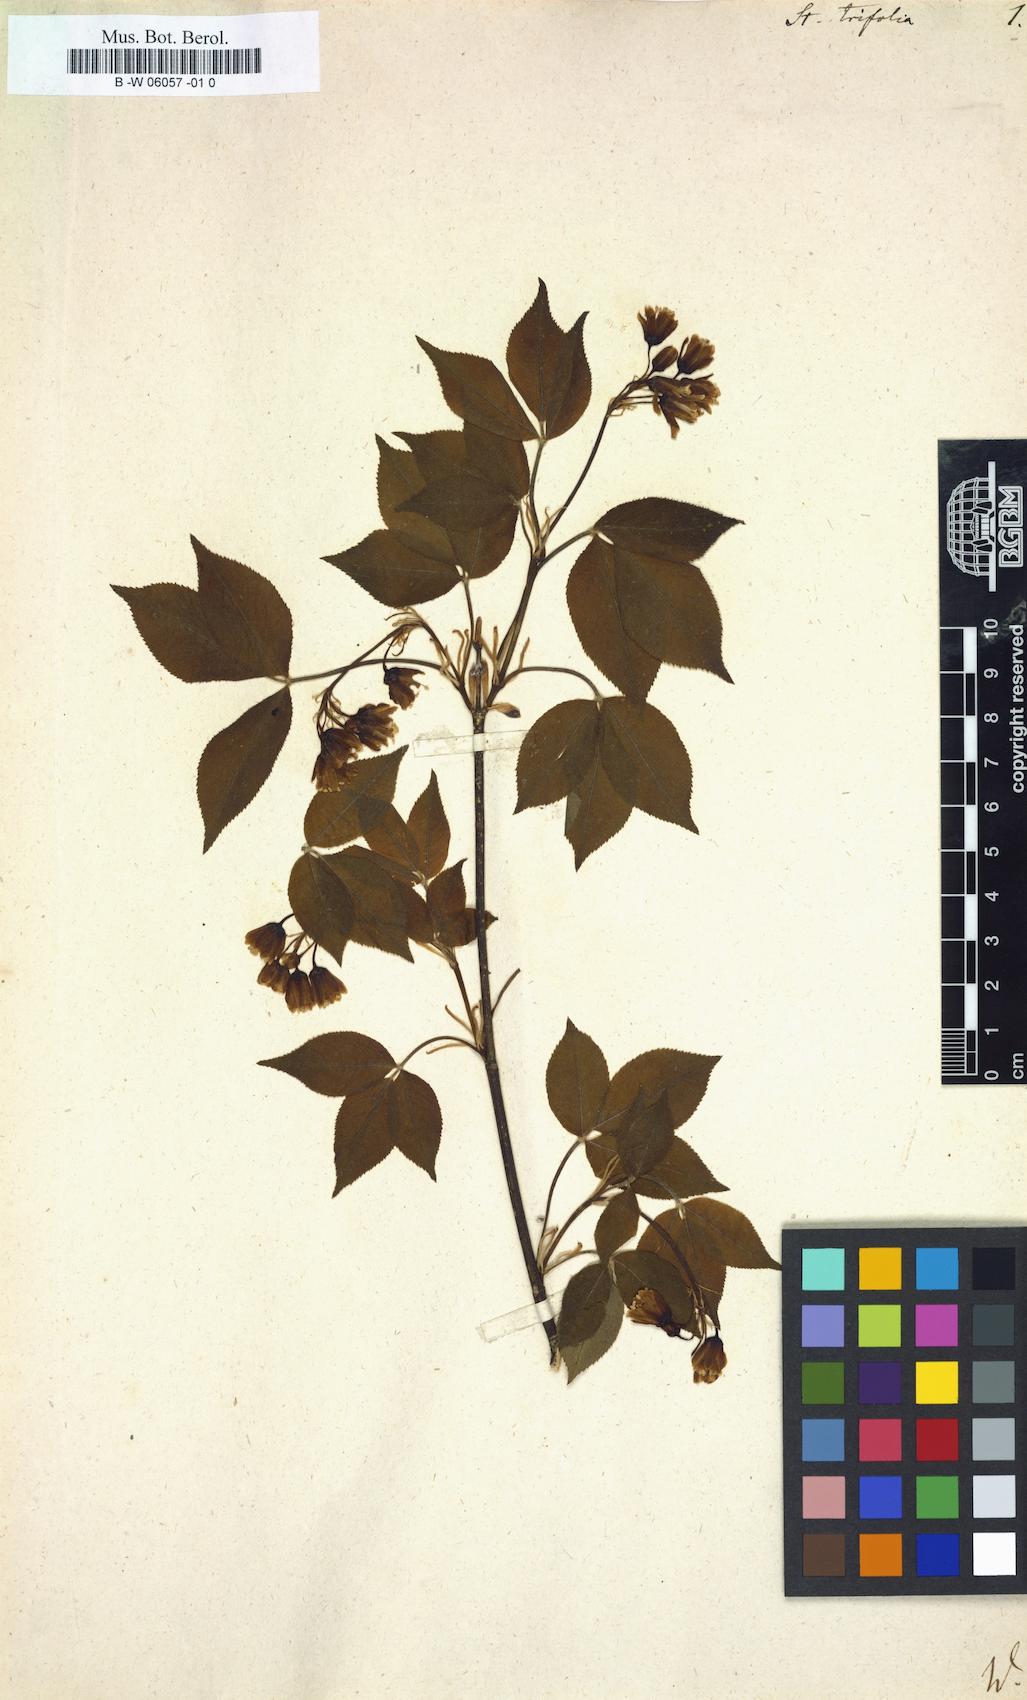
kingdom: Plantae
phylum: Tracheophyta
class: Magnoliopsida
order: Crossosomatales
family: Staphyleaceae
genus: Staphylea
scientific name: Staphylea trifolia
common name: American bladdernut
